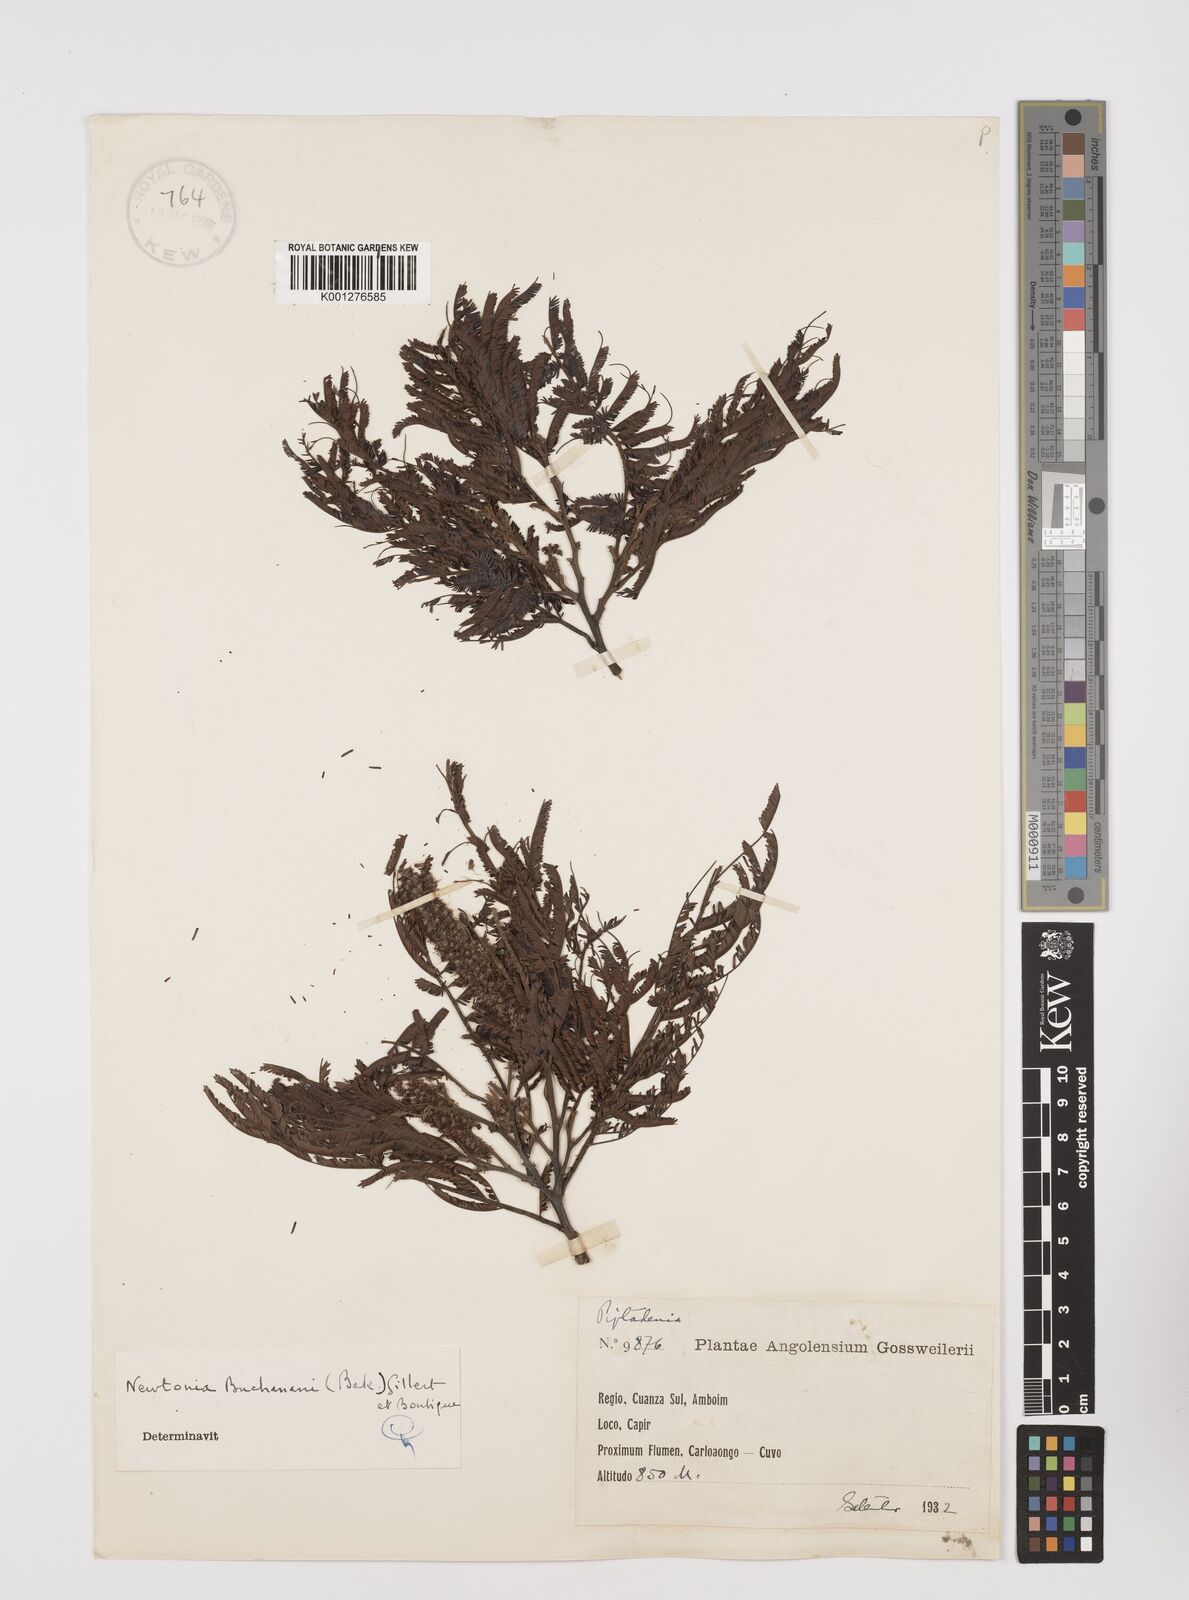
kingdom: Plantae
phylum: Tracheophyta
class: Magnoliopsida
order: Fabales
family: Fabaceae
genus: Newtonia
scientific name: Newtonia buchananii
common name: Forest newtonia
